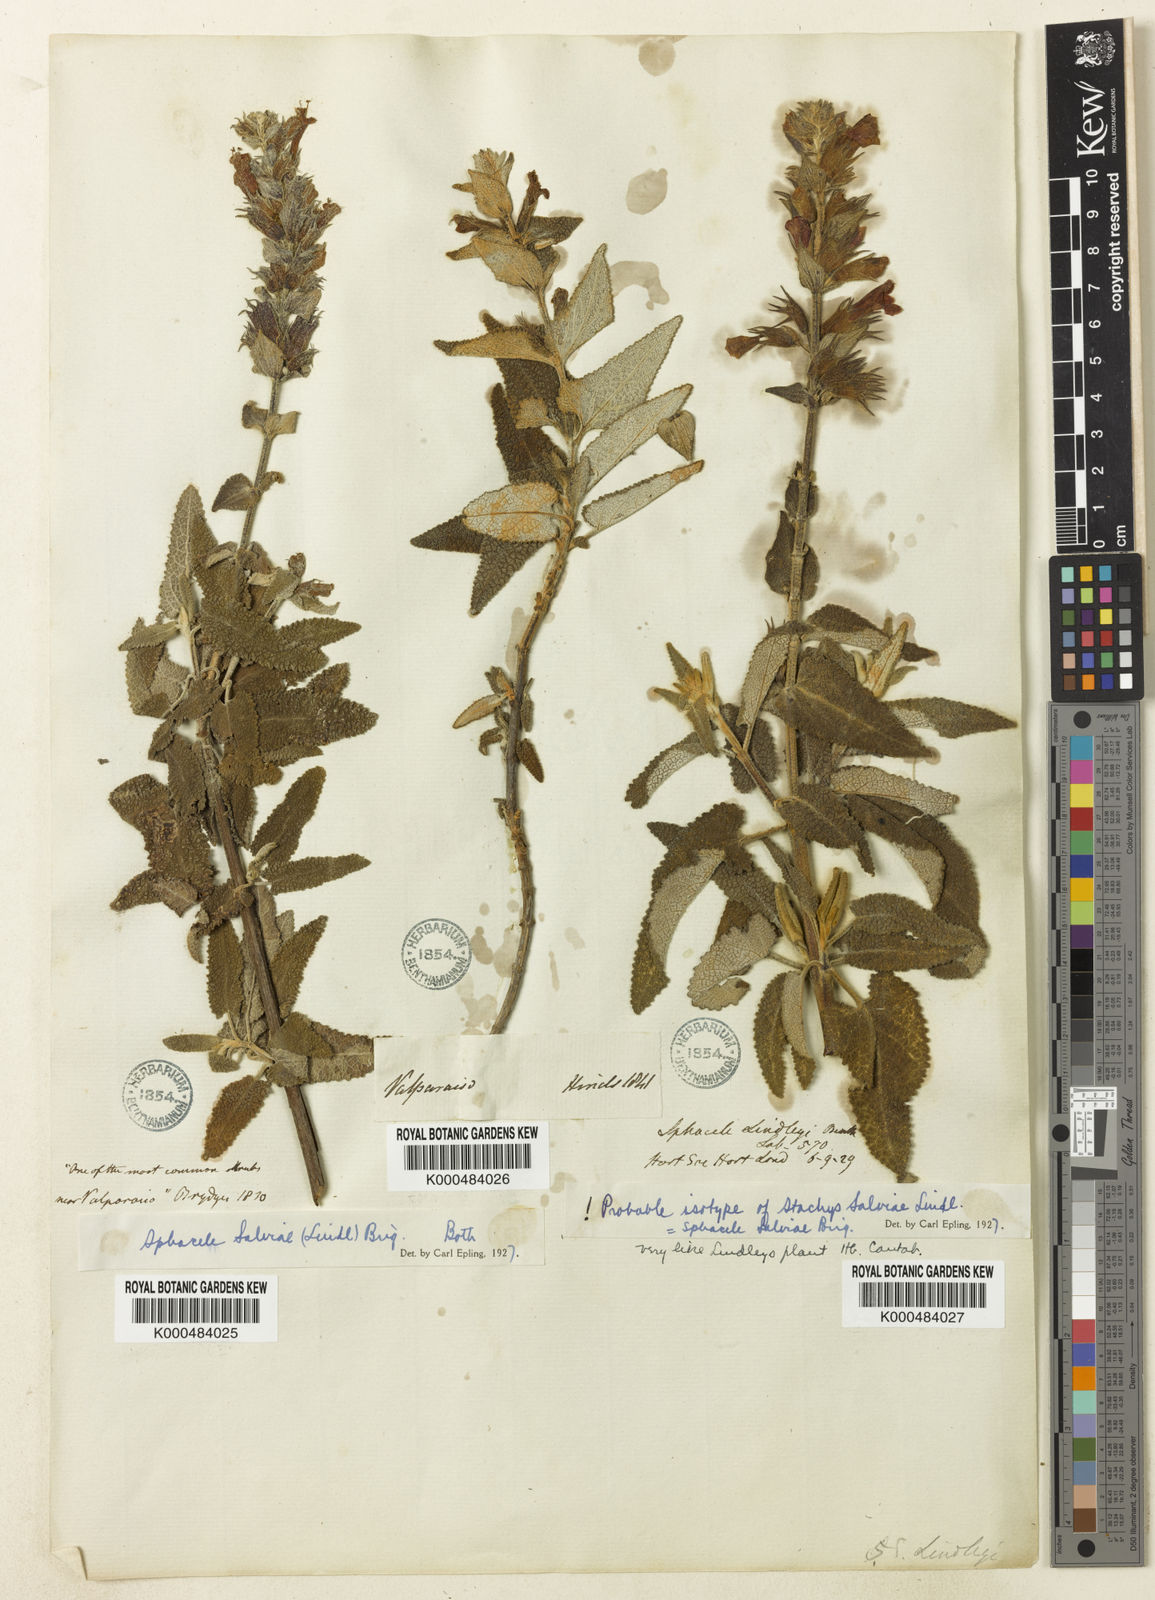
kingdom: Plantae
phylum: Tracheophyta
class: Magnoliopsida
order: Lamiales
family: Lamiaceae
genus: Lepechinia
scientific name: Lepechinia salviae
